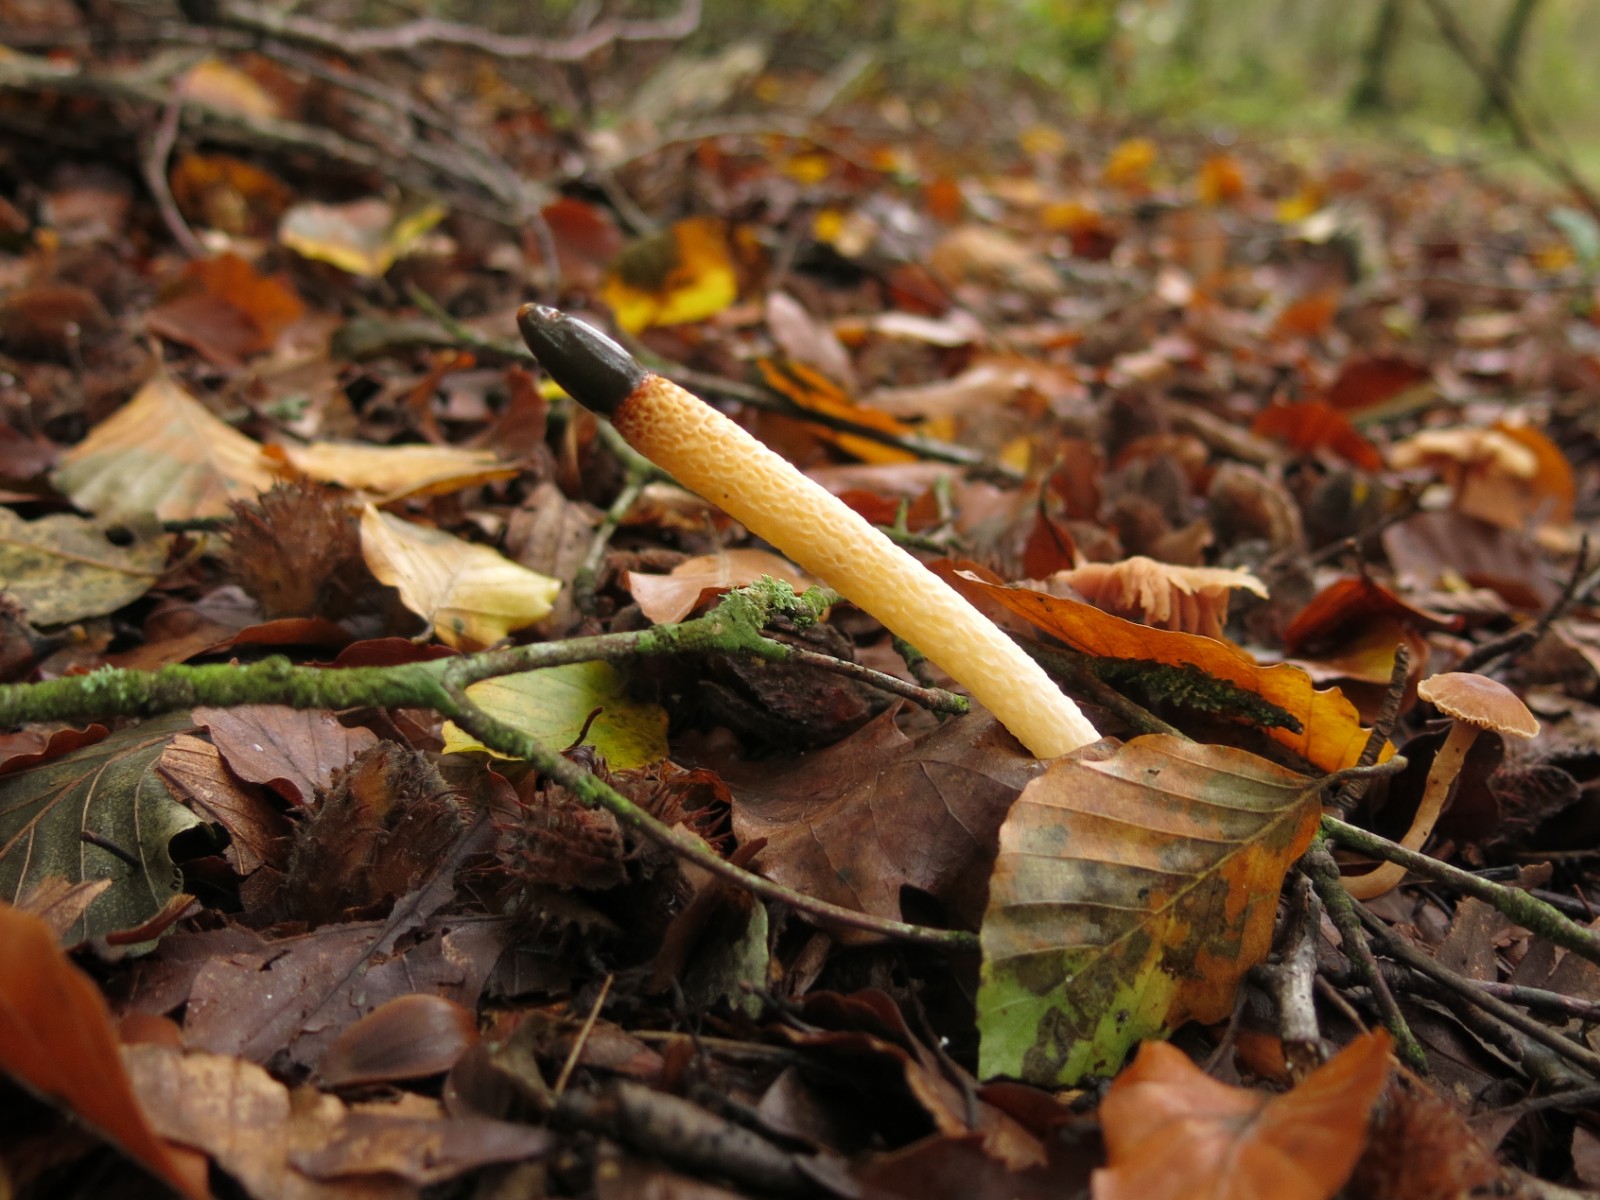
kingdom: Fungi
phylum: Basidiomycota
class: Agaricomycetes
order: Phallales
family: Phallaceae
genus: Mutinus
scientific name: Mutinus caninus
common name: hunde-stinksvamp
